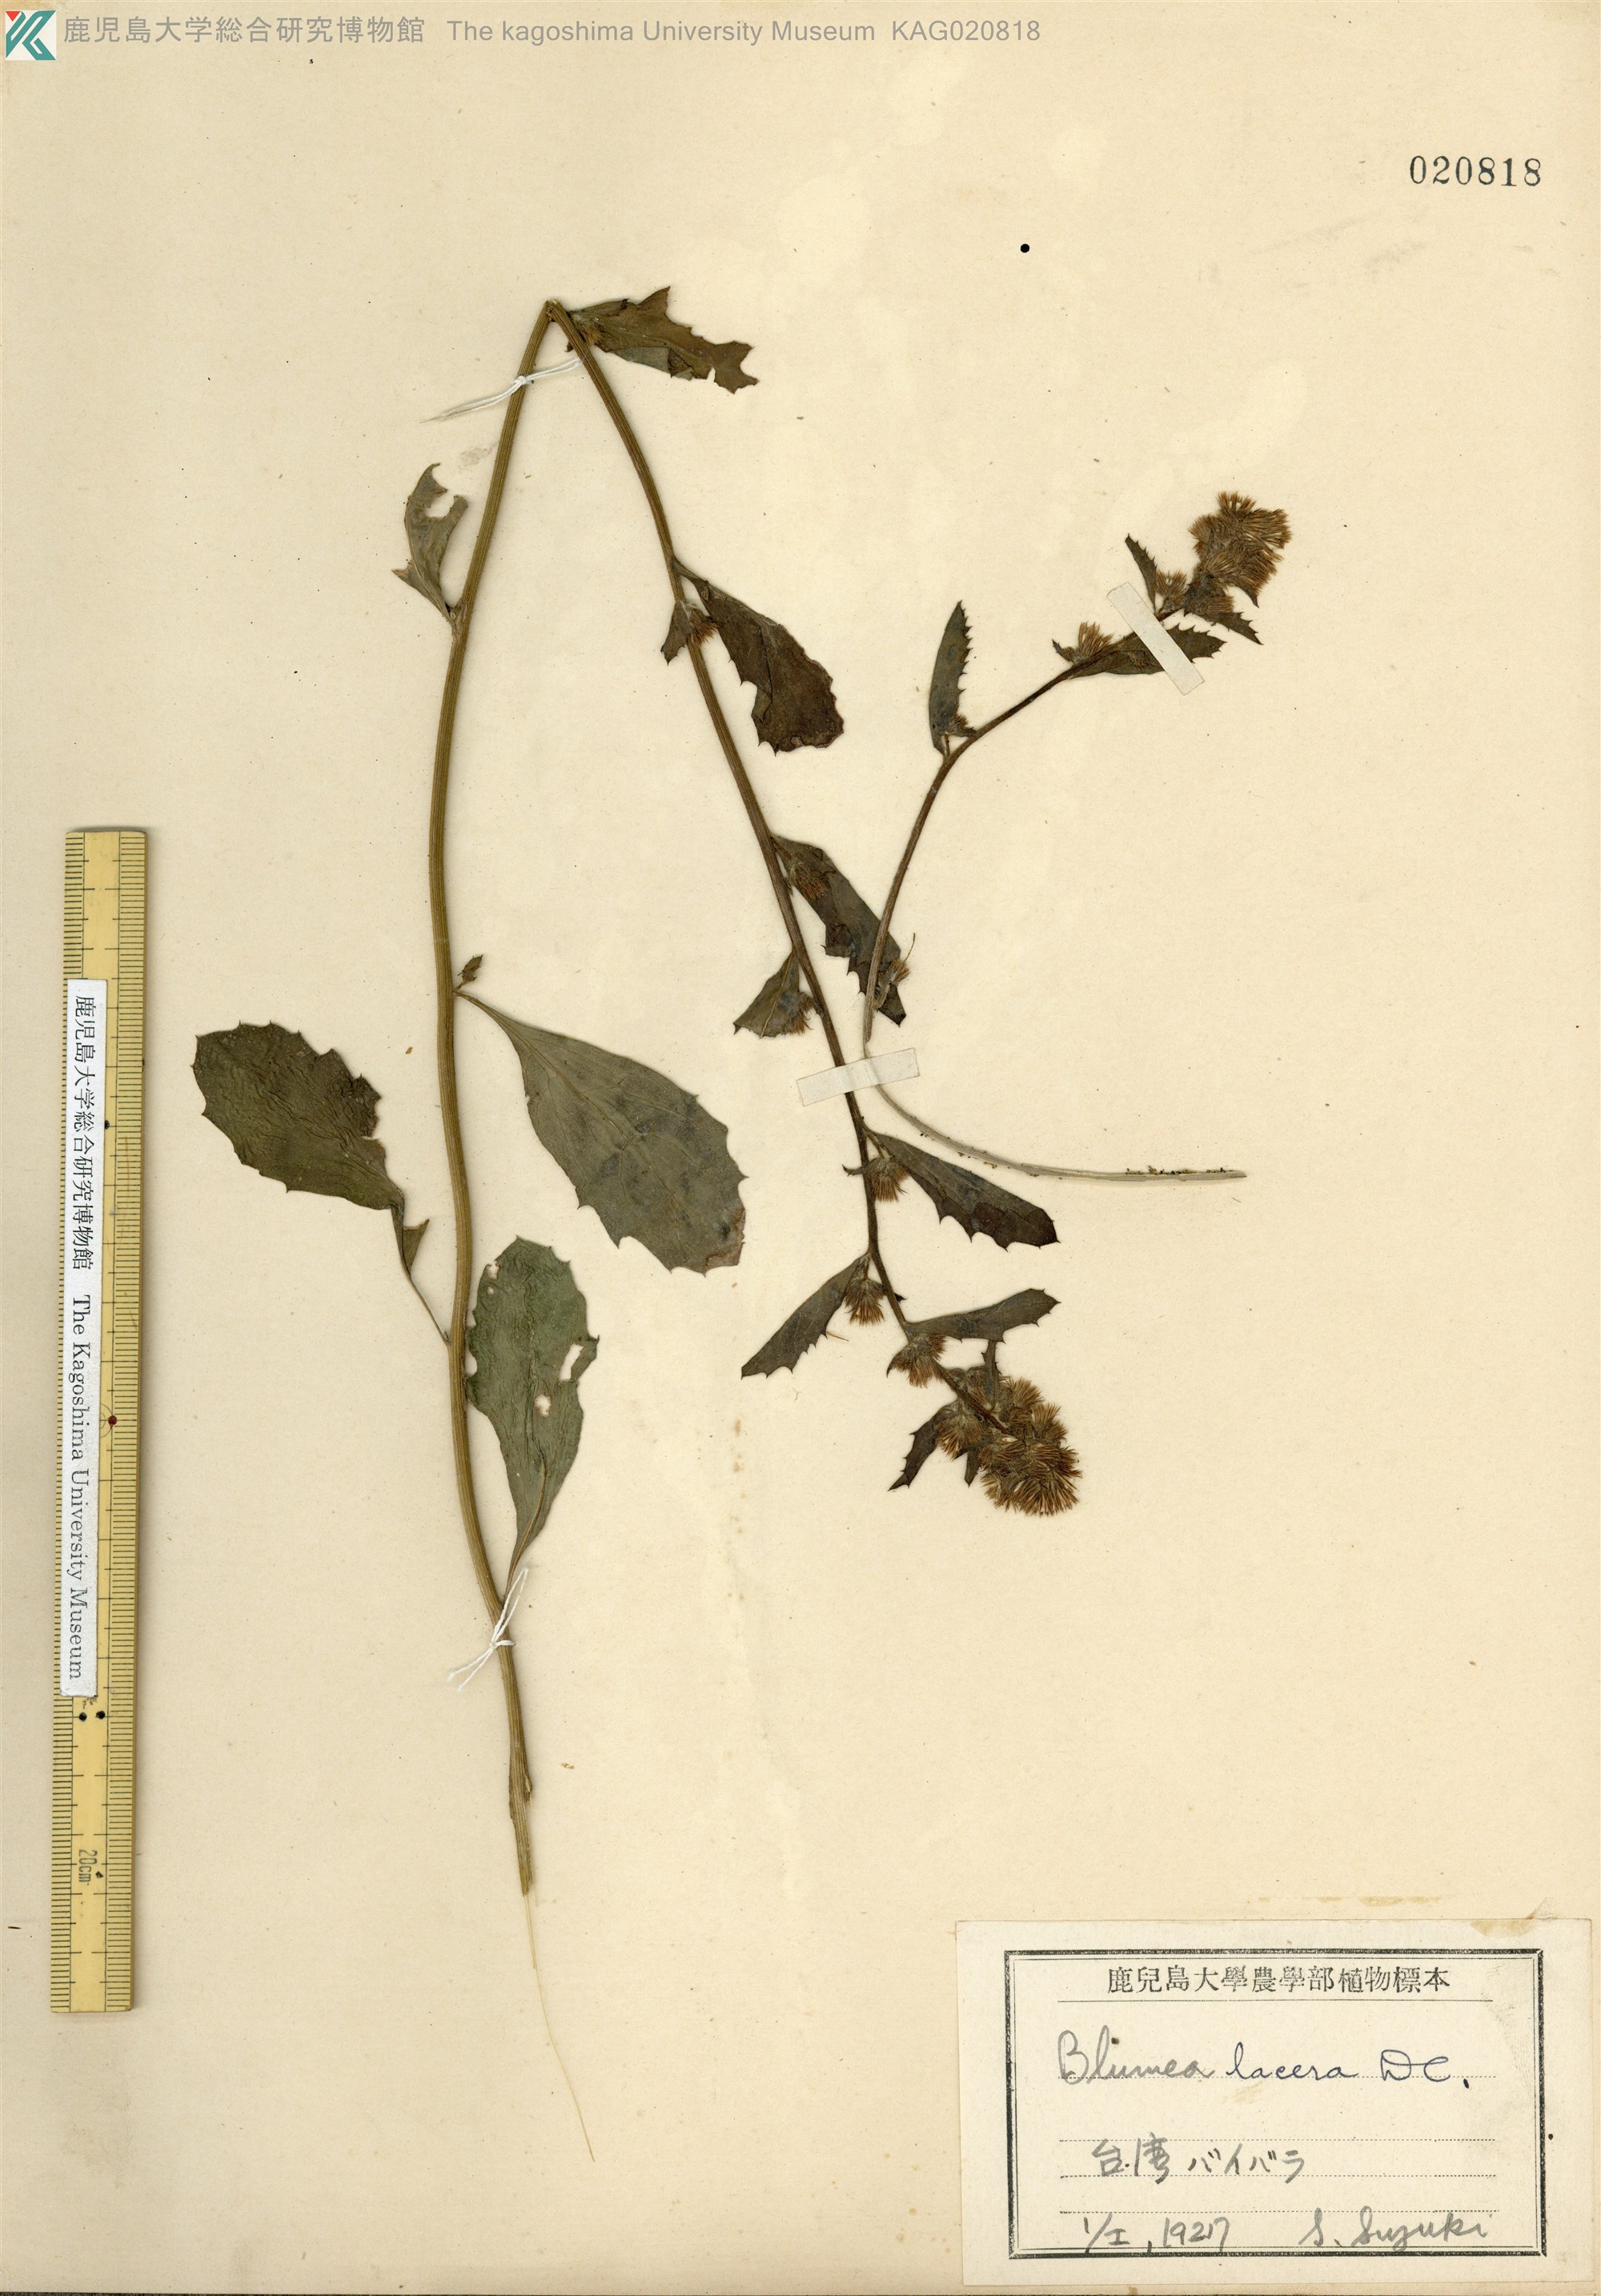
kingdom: Plantae
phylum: Tracheophyta
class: Magnoliopsida
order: Asterales
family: Asteraceae
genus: Blumea
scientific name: Blumea lacera
